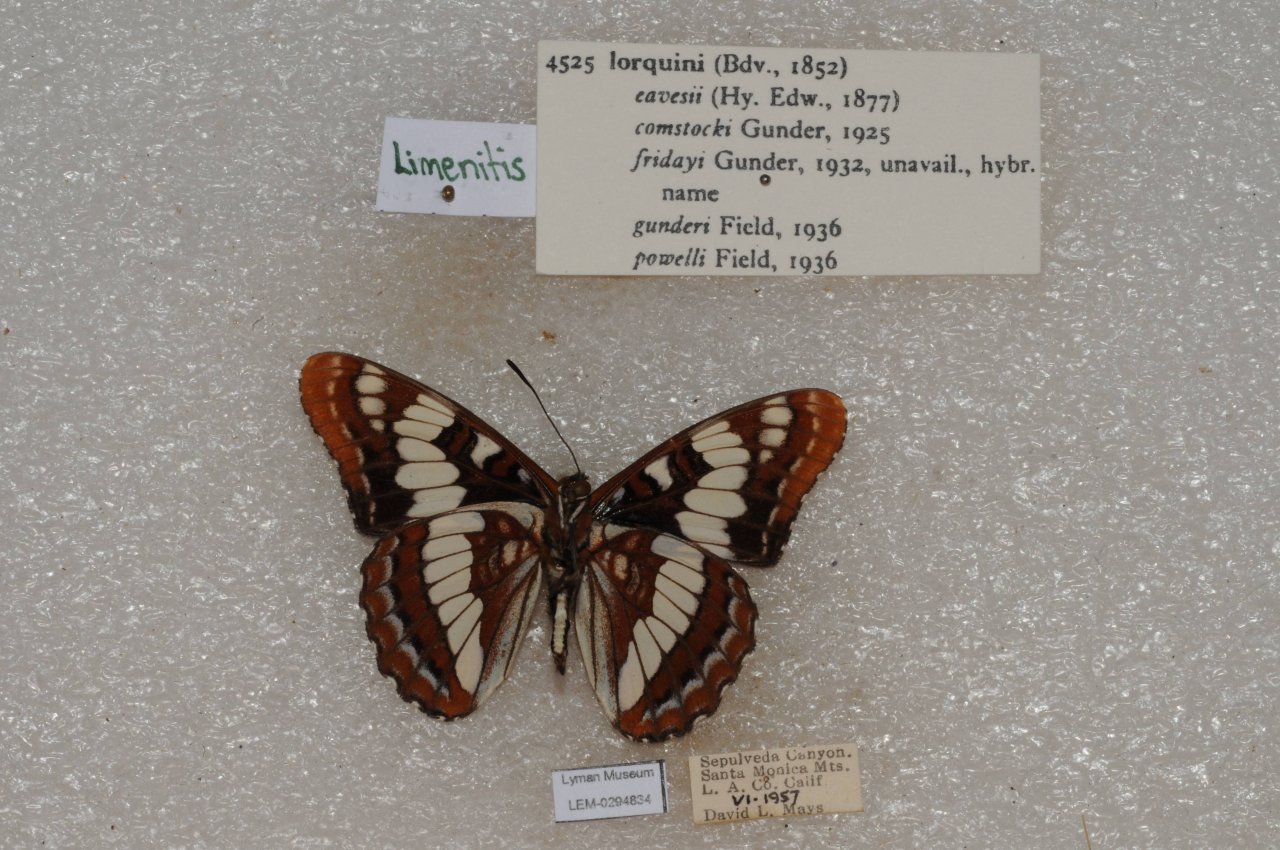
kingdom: Animalia
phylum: Arthropoda
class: Insecta
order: Lepidoptera
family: Nymphalidae
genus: Limenitis
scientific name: Limenitis lorquini
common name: Lorquin's Admiral
